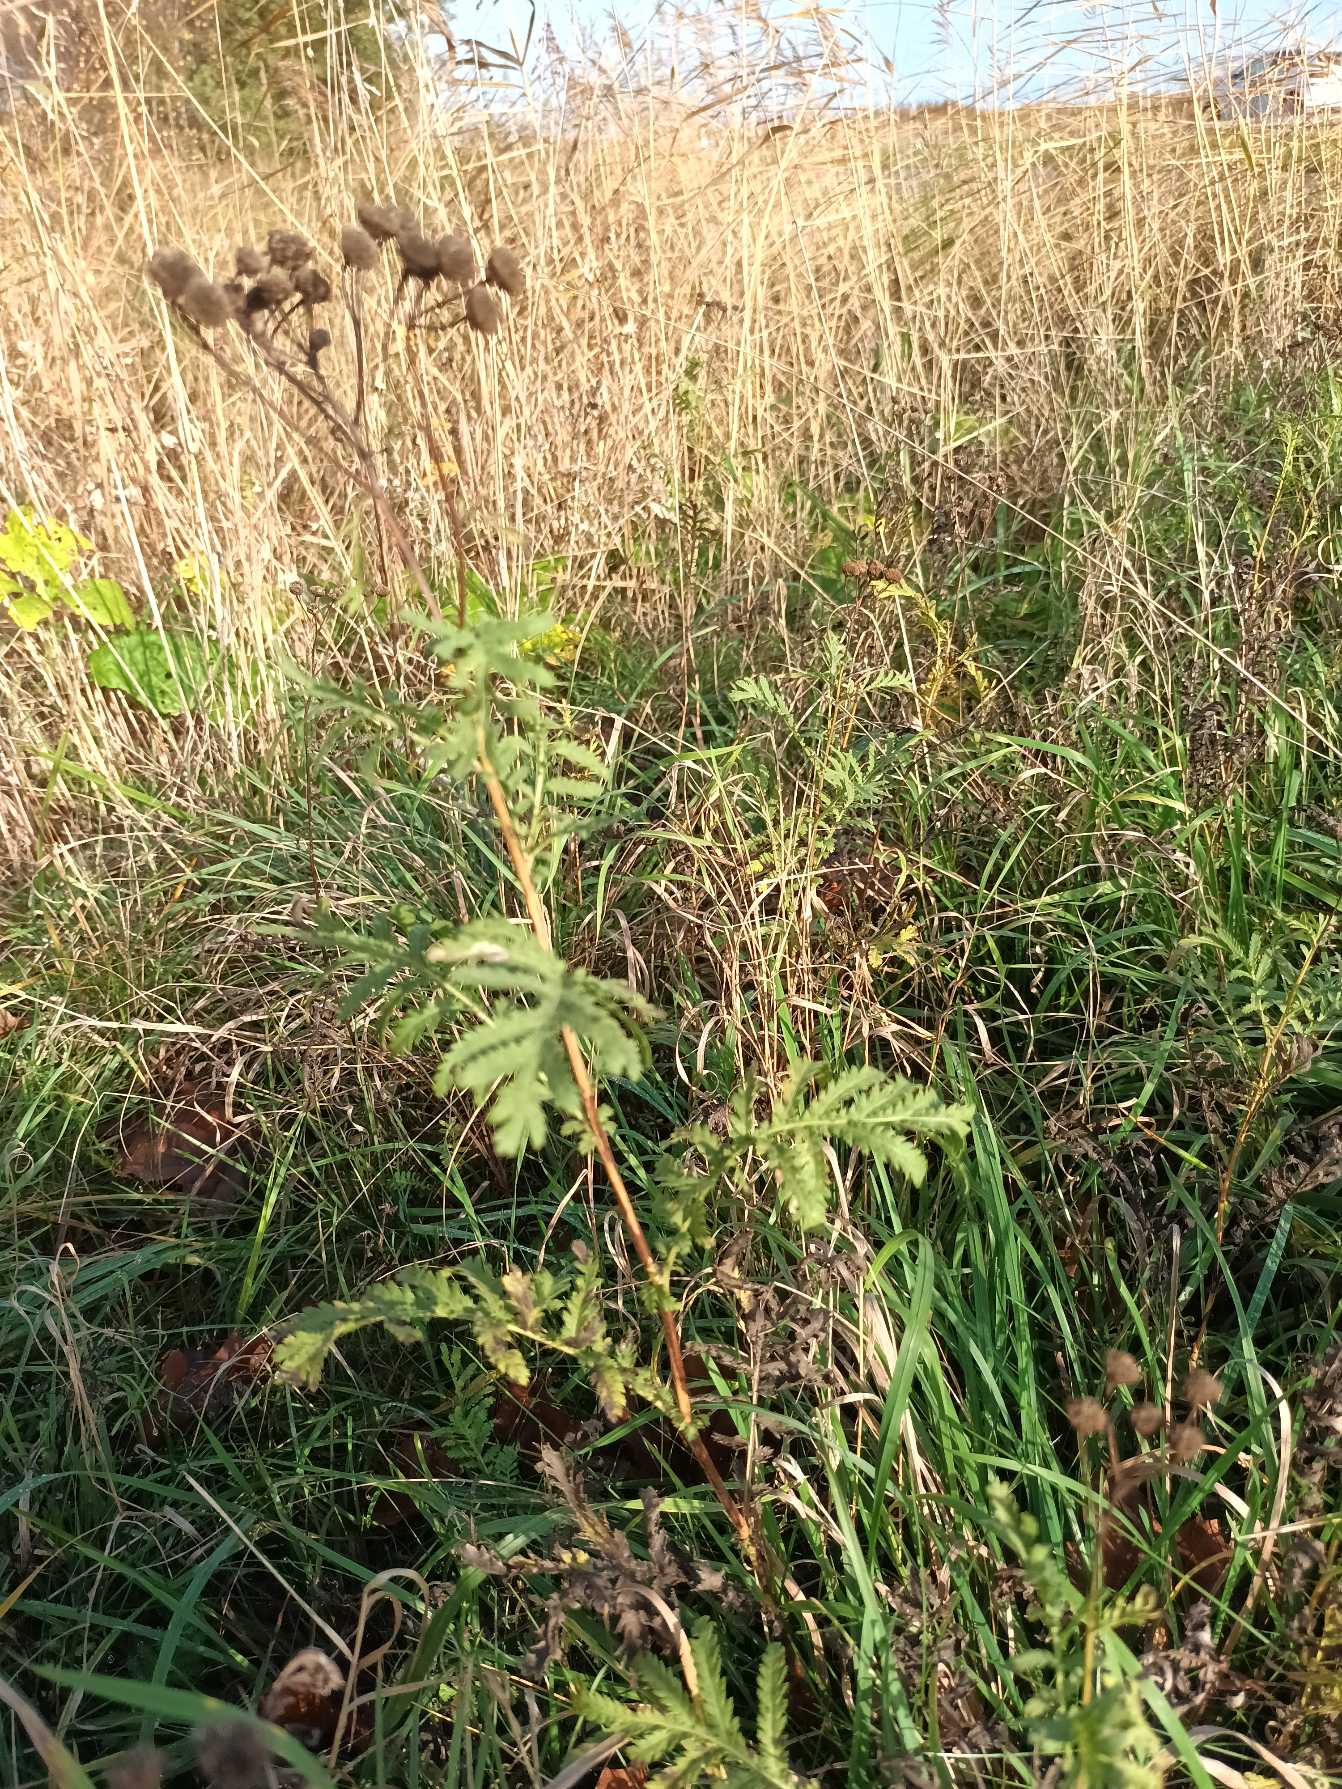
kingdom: Plantae
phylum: Tracheophyta
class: Magnoliopsida
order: Asterales
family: Asteraceae
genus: Tanacetum
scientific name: Tanacetum vulgare
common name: Rejnfan
